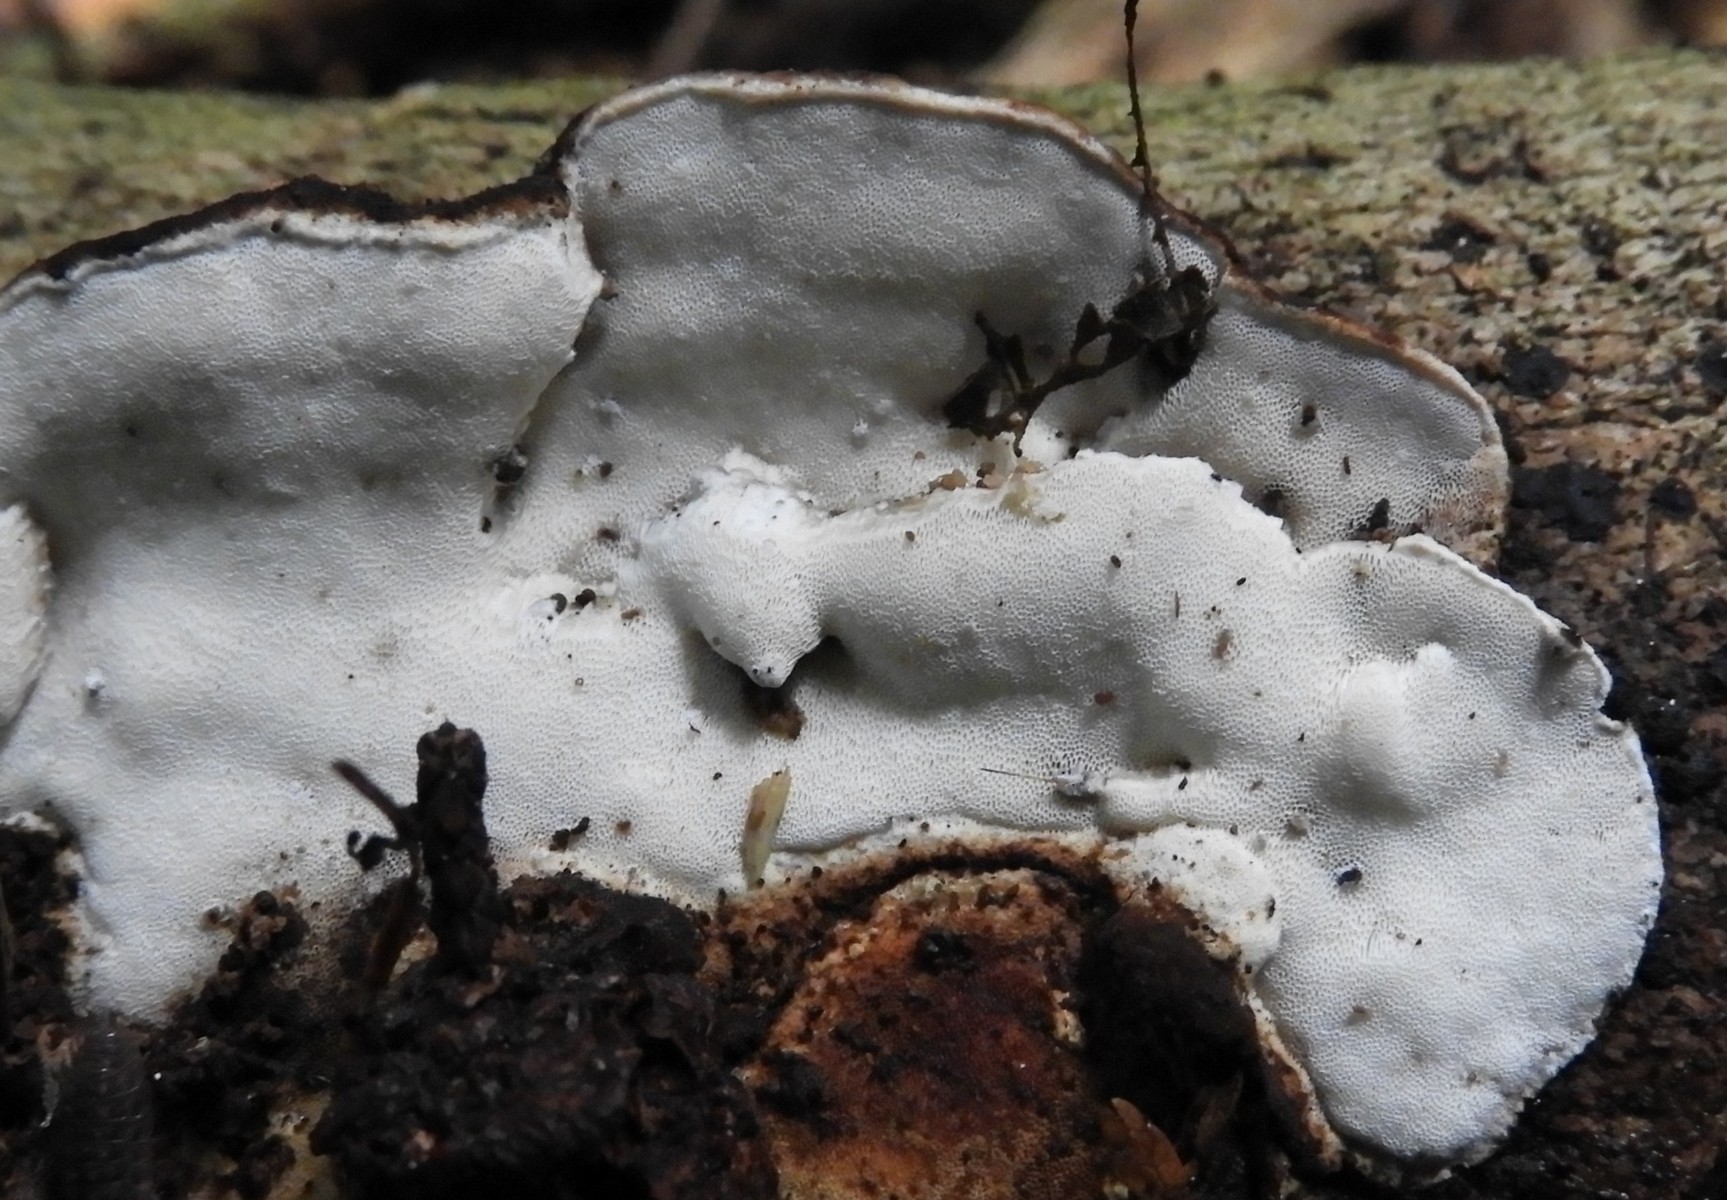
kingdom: Fungi
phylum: Basidiomycota
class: Agaricomycetes
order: Polyporales
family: Incrustoporiaceae
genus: Skeletocutis
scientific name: Skeletocutis nemoralis
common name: stor krystalporesvamp
